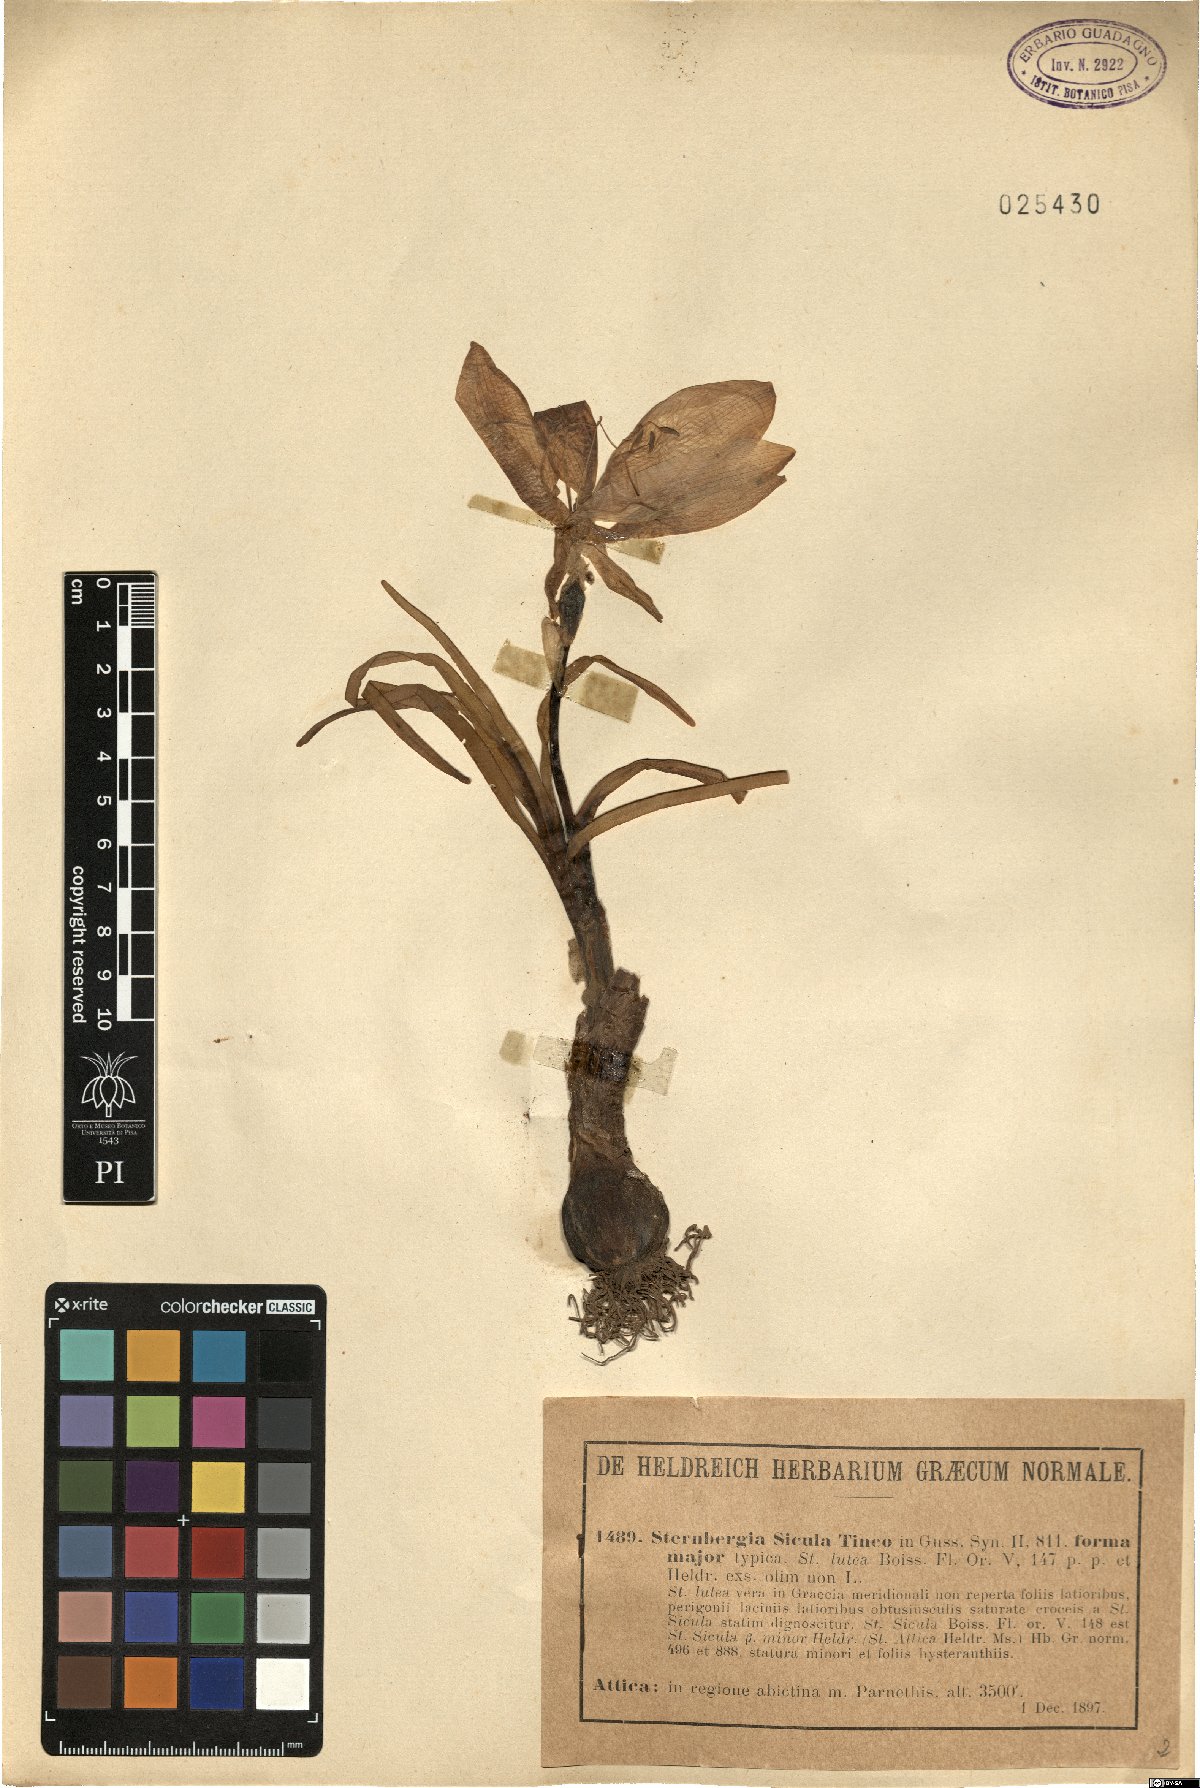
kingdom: Plantae
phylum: Tracheophyta
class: Liliopsida
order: Asparagales
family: Amaryllidaceae
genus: Sternbergia
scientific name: Sternbergia lutea
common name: Winter daffodil
